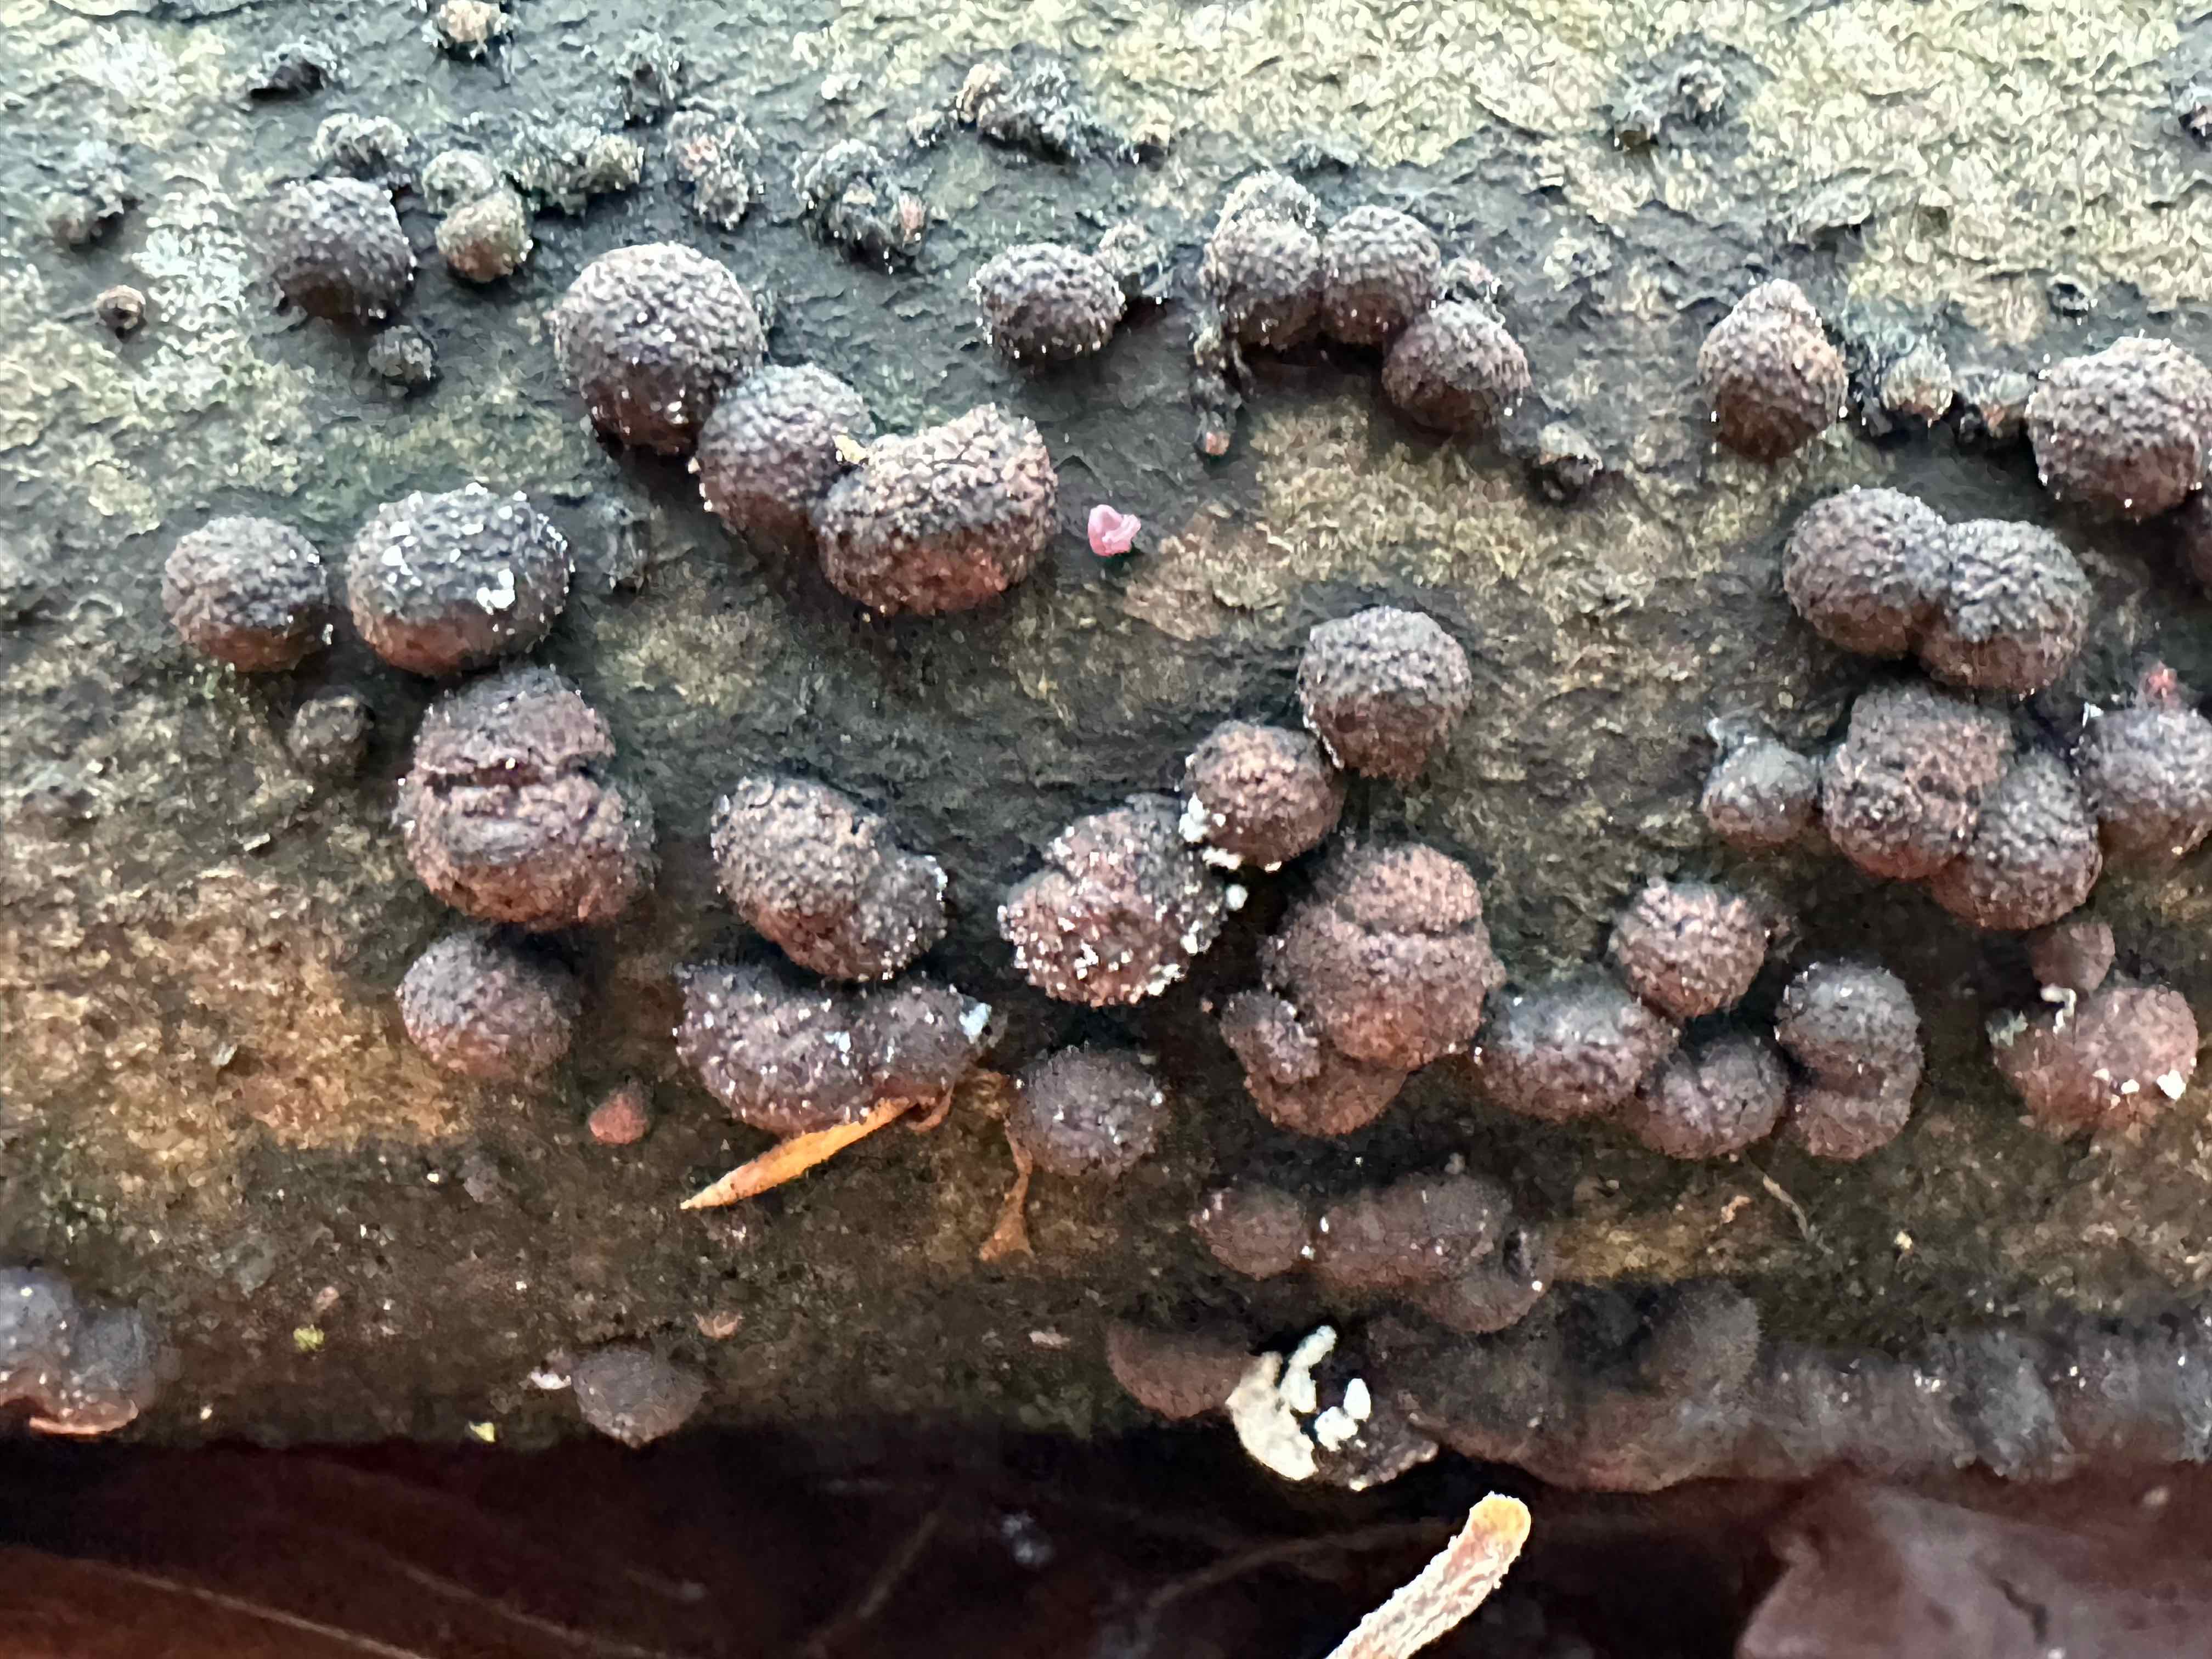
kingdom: Fungi
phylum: Ascomycota
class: Sordariomycetes
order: Xylariales
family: Hypoxylaceae
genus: Hypoxylon
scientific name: Hypoxylon fragiforme
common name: kuljordbær
